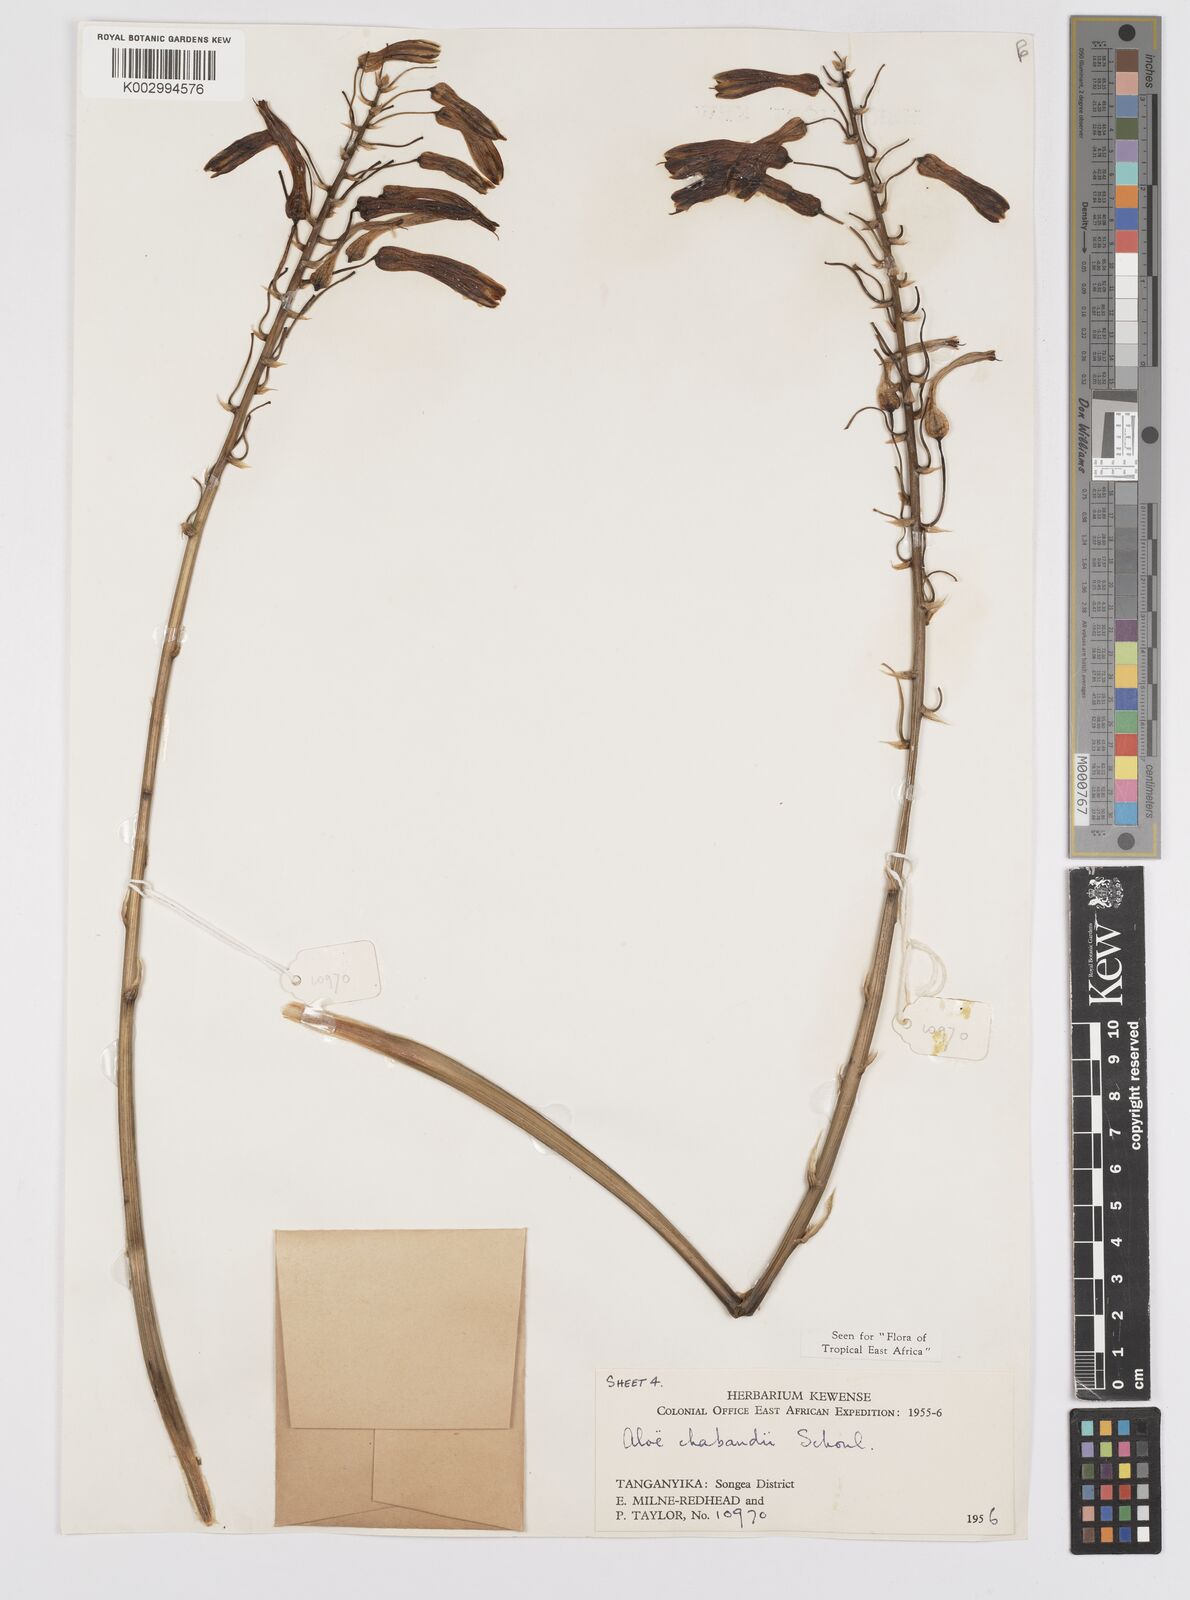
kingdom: Plantae
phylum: Tracheophyta
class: Liliopsida
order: Asparagales
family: Asphodelaceae
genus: Aloe
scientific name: Aloe chabaudii
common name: Chabaud's aloe
